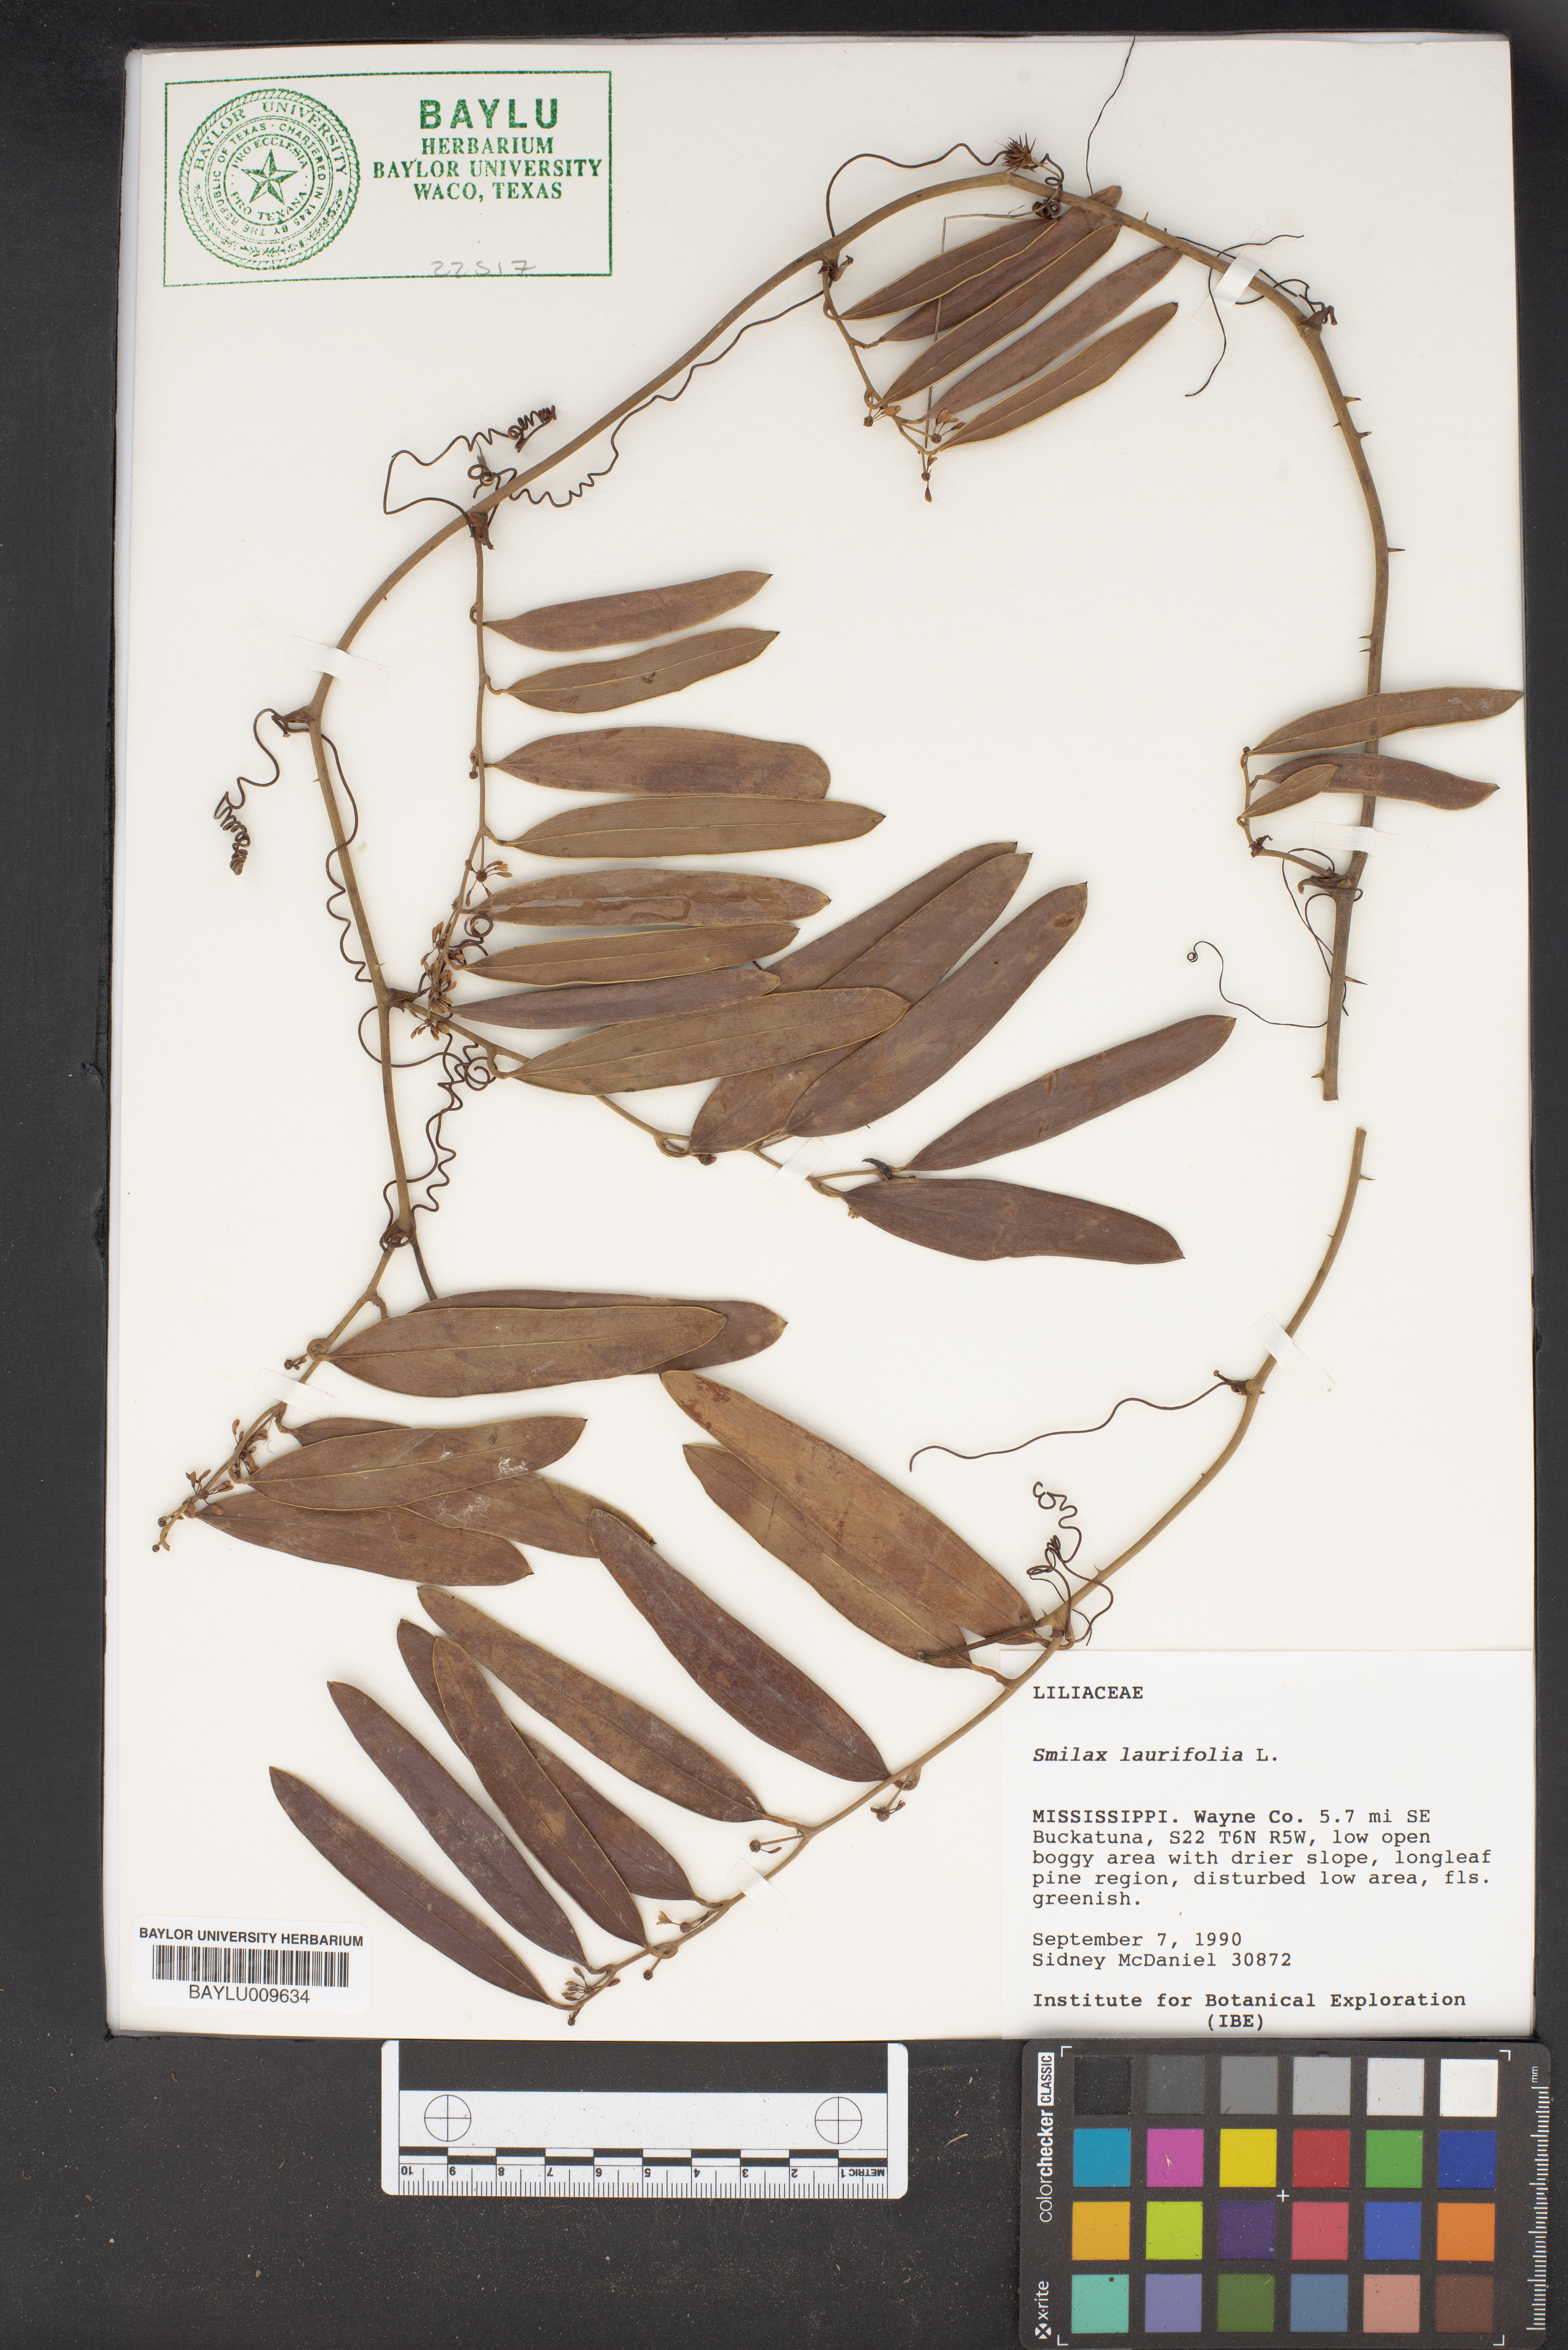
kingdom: Plantae
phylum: Tracheophyta
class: Liliopsida
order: Liliales
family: Smilacaceae
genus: Smilax
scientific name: Smilax laurifolia
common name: Bamboovine
